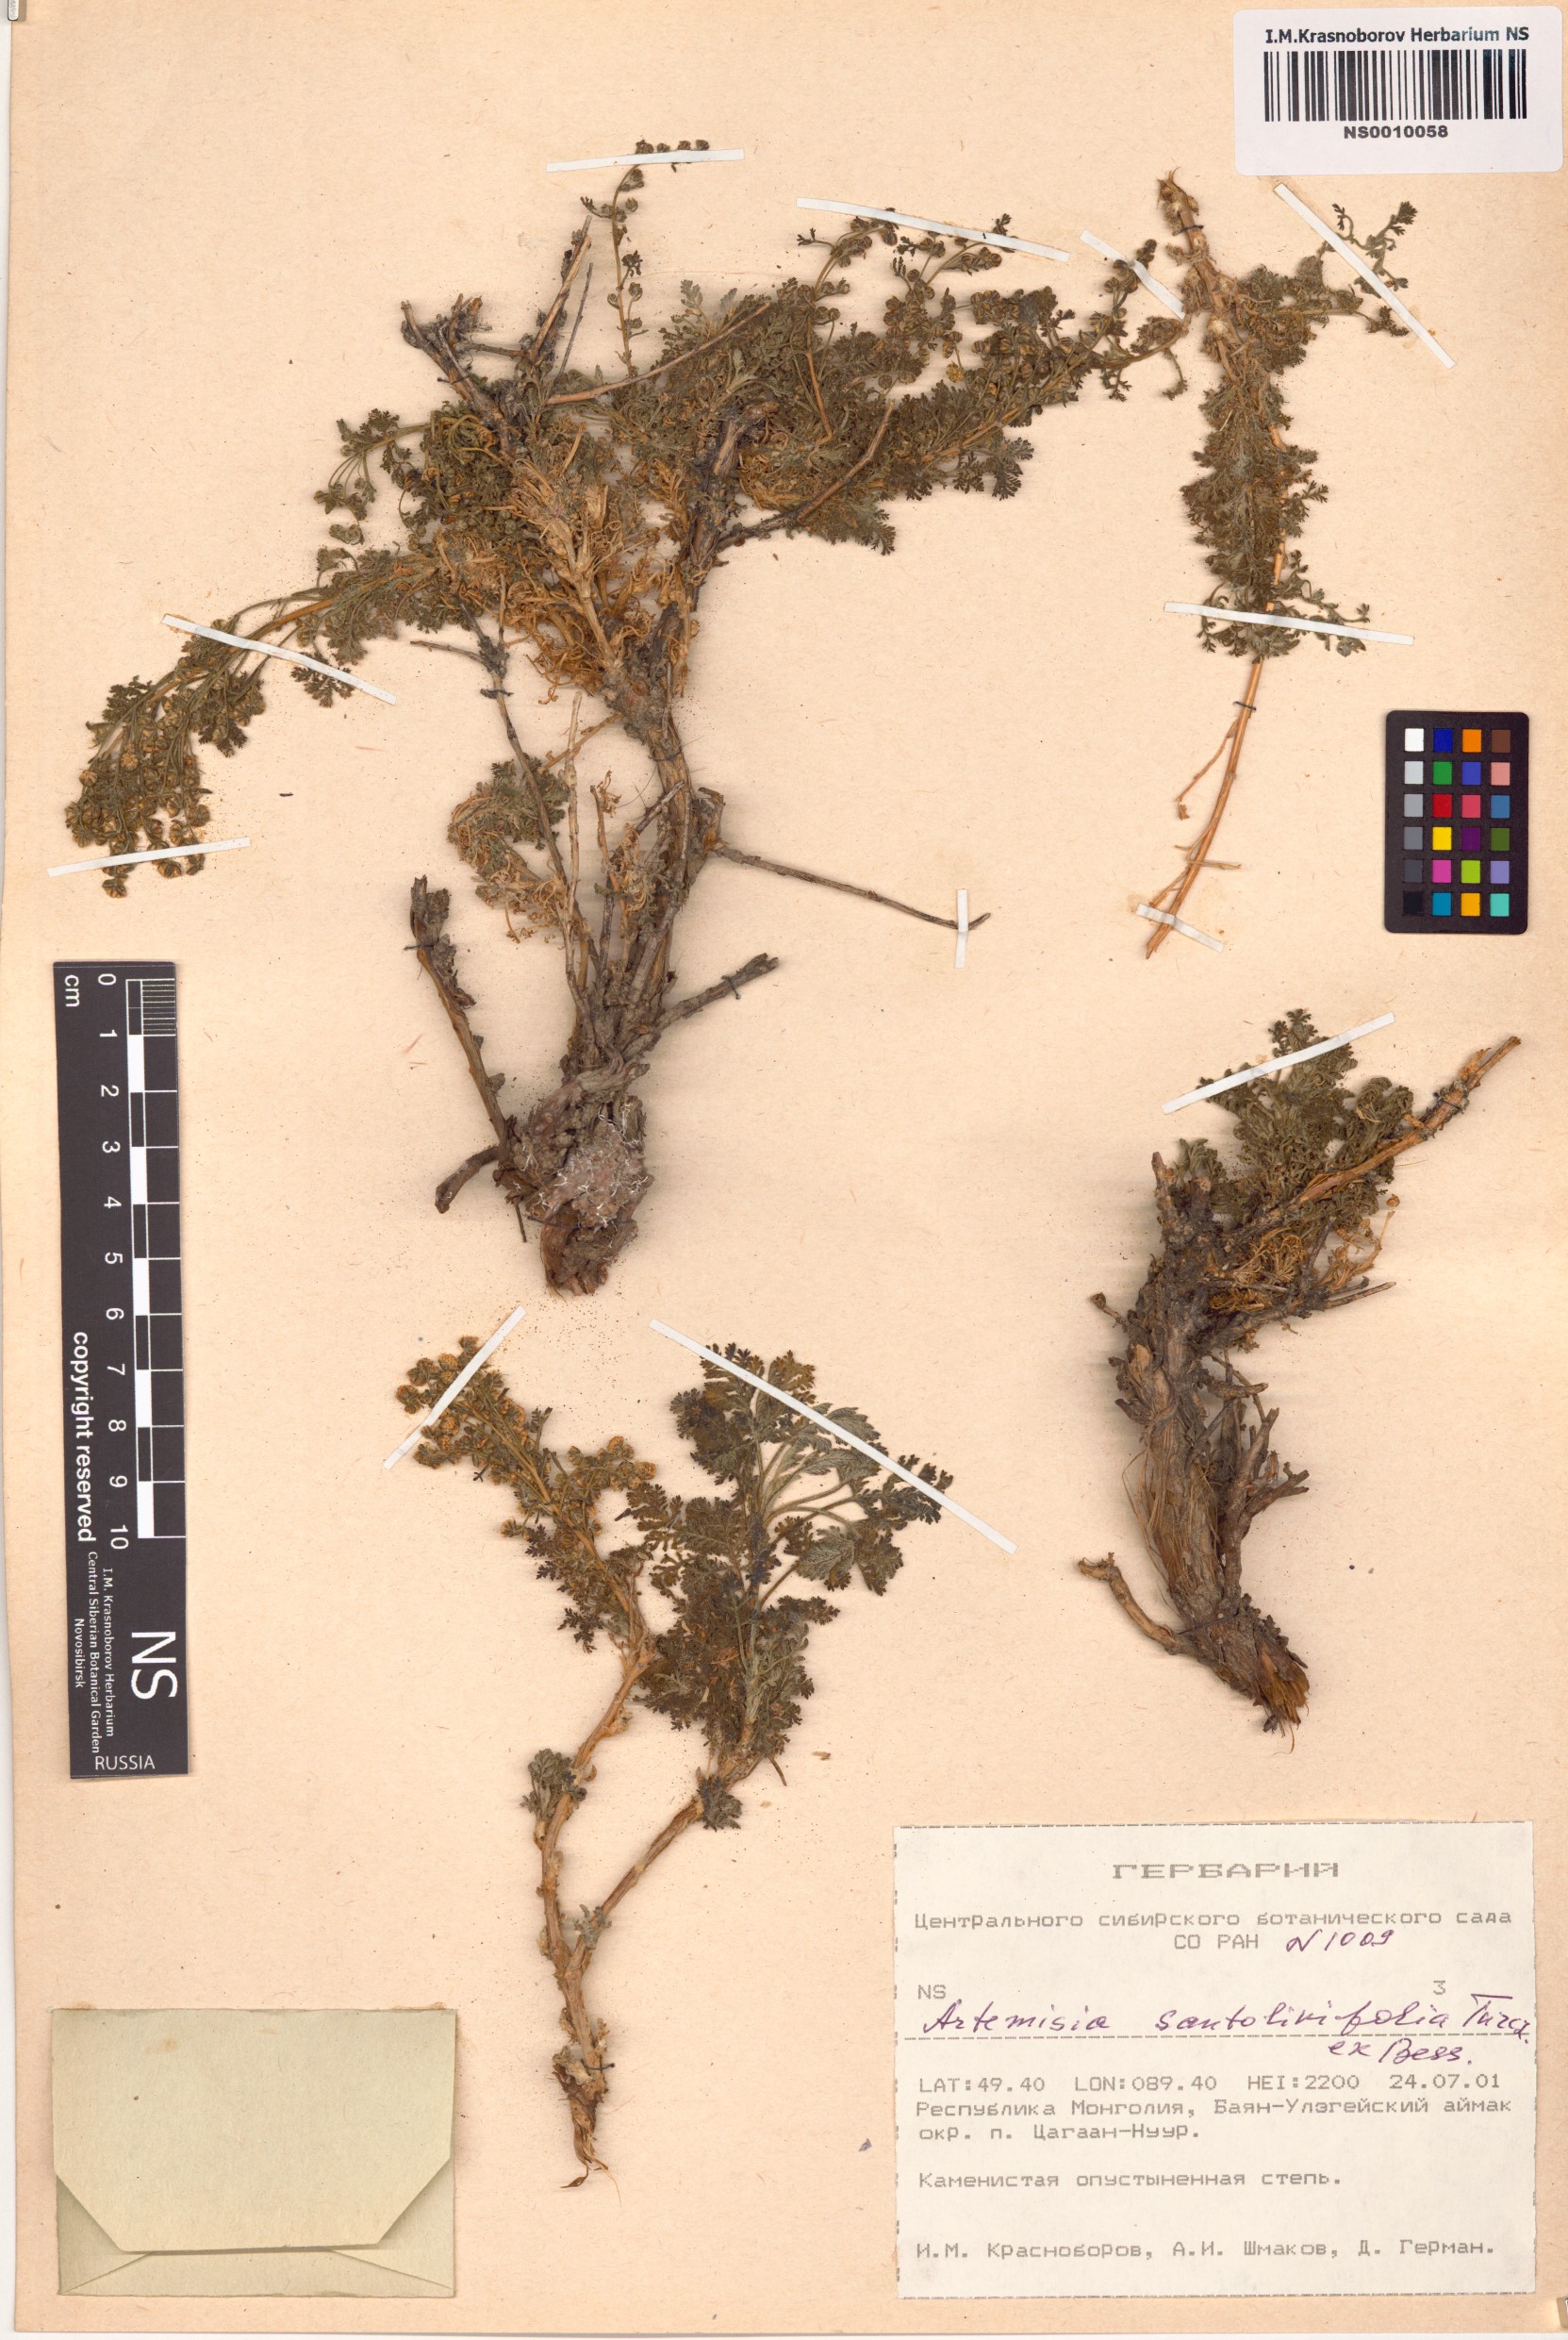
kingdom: Plantae
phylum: Tracheophyta
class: Magnoliopsida
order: Asterales
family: Asteraceae
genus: Artemisia
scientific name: Artemisia stechmanniana
